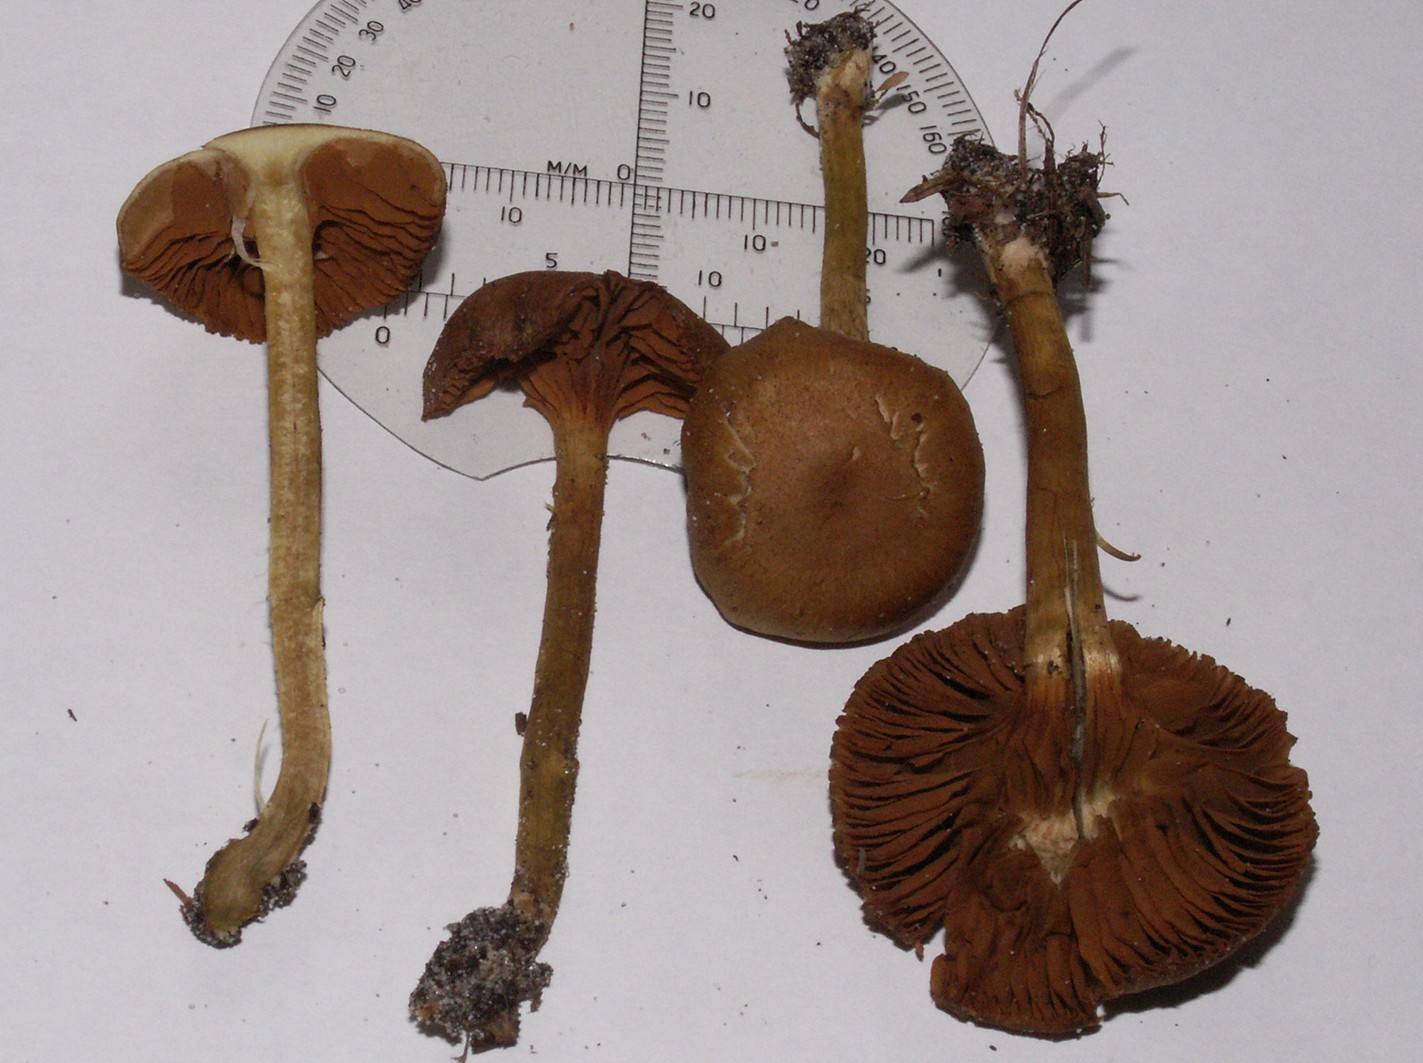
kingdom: Fungi
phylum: Basidiomycota
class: Agaricomycetes
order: Agaricales
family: Cortinariaceae
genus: Cortinarius
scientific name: Cortinarius cinnamomeus
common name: kanel-slørhat
